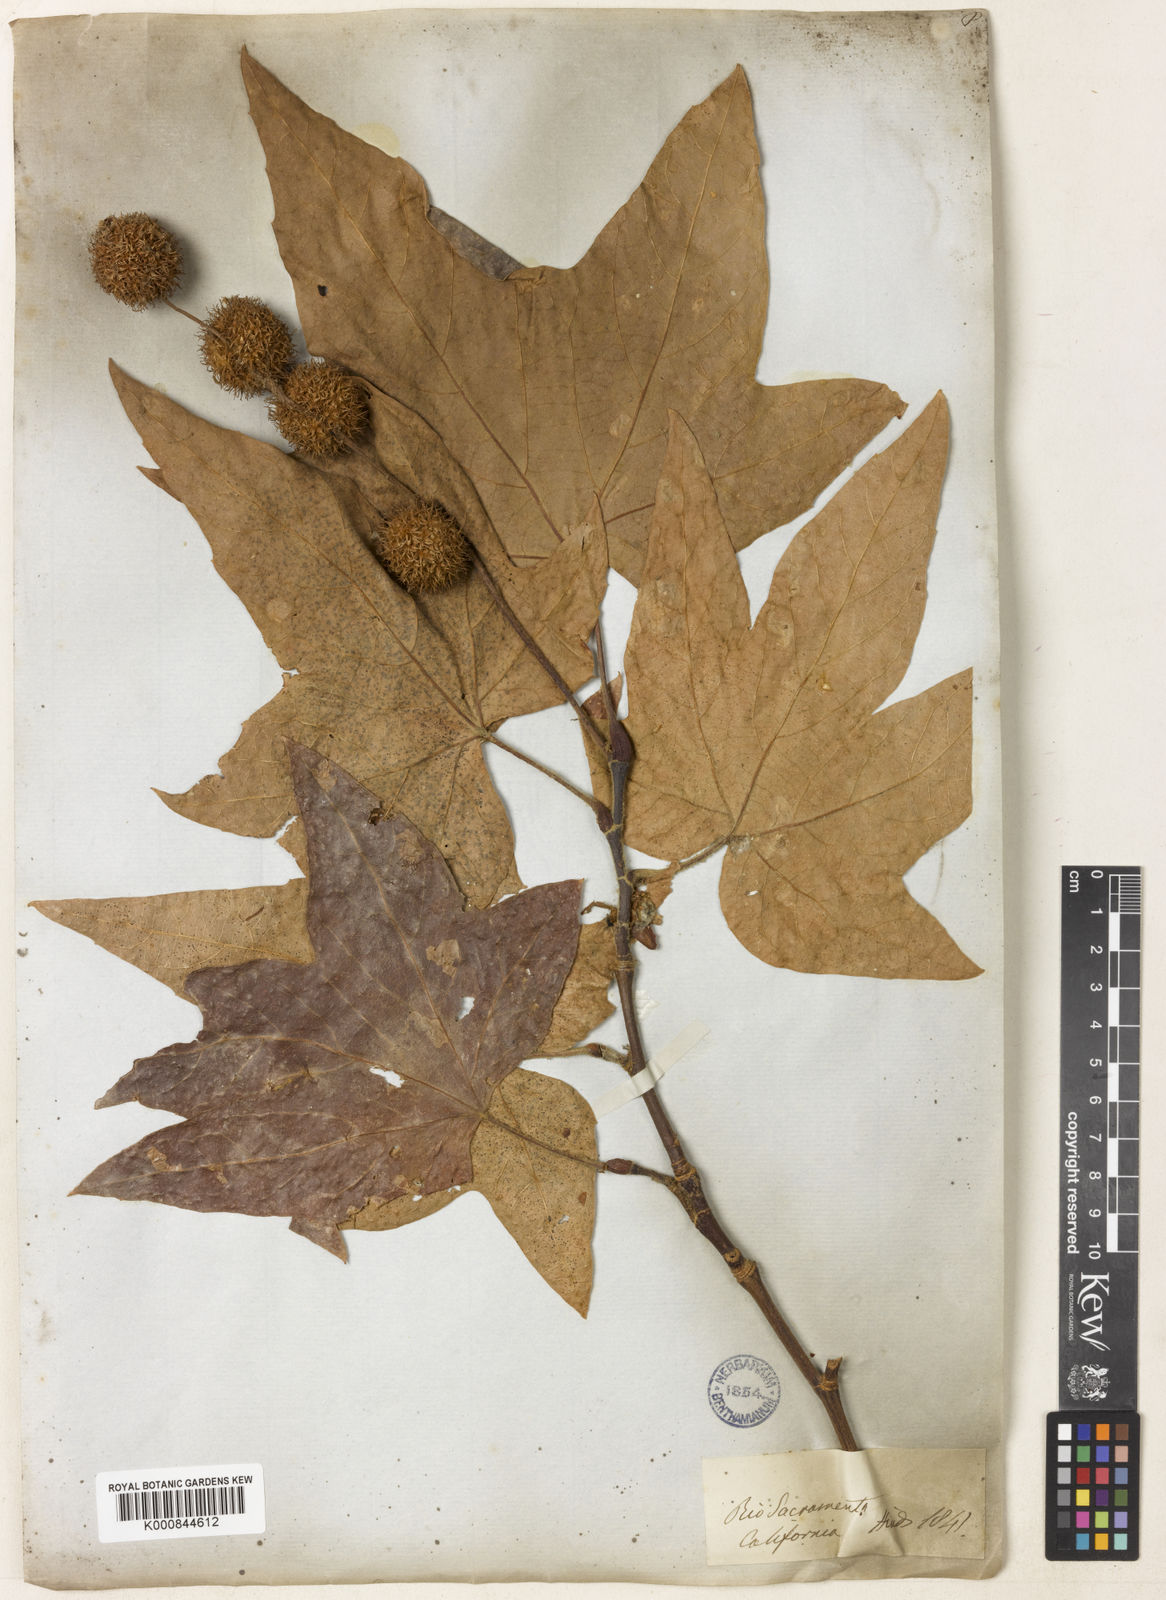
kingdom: Plantae
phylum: Tracheophyta
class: Magnoliopsida
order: Proteales
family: Platanaceae
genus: Platanus
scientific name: Platanus racemosa
